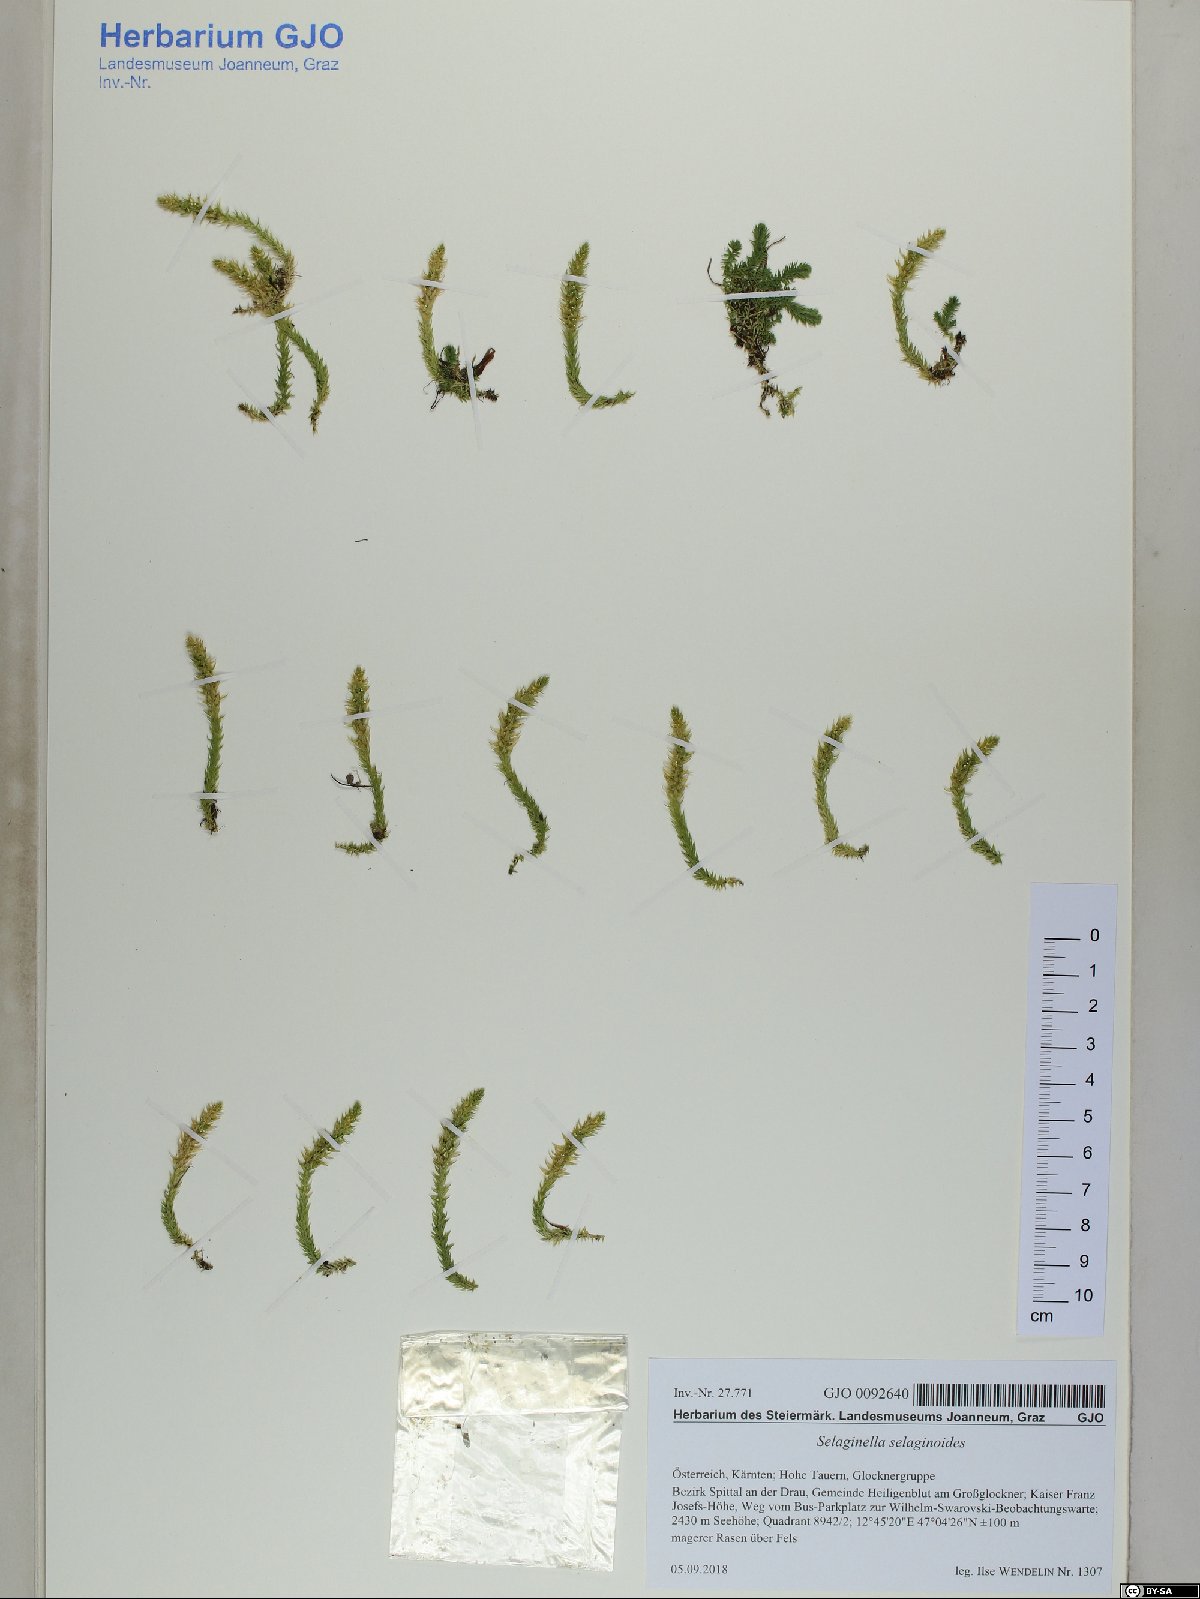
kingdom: Plantae
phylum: Tracheophyta
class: Lycopodiopsida
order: Selaginellales
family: Selaginellaceae
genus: Selaginella
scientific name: Selaginella selaginoides
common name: Prickly mountain-moss
